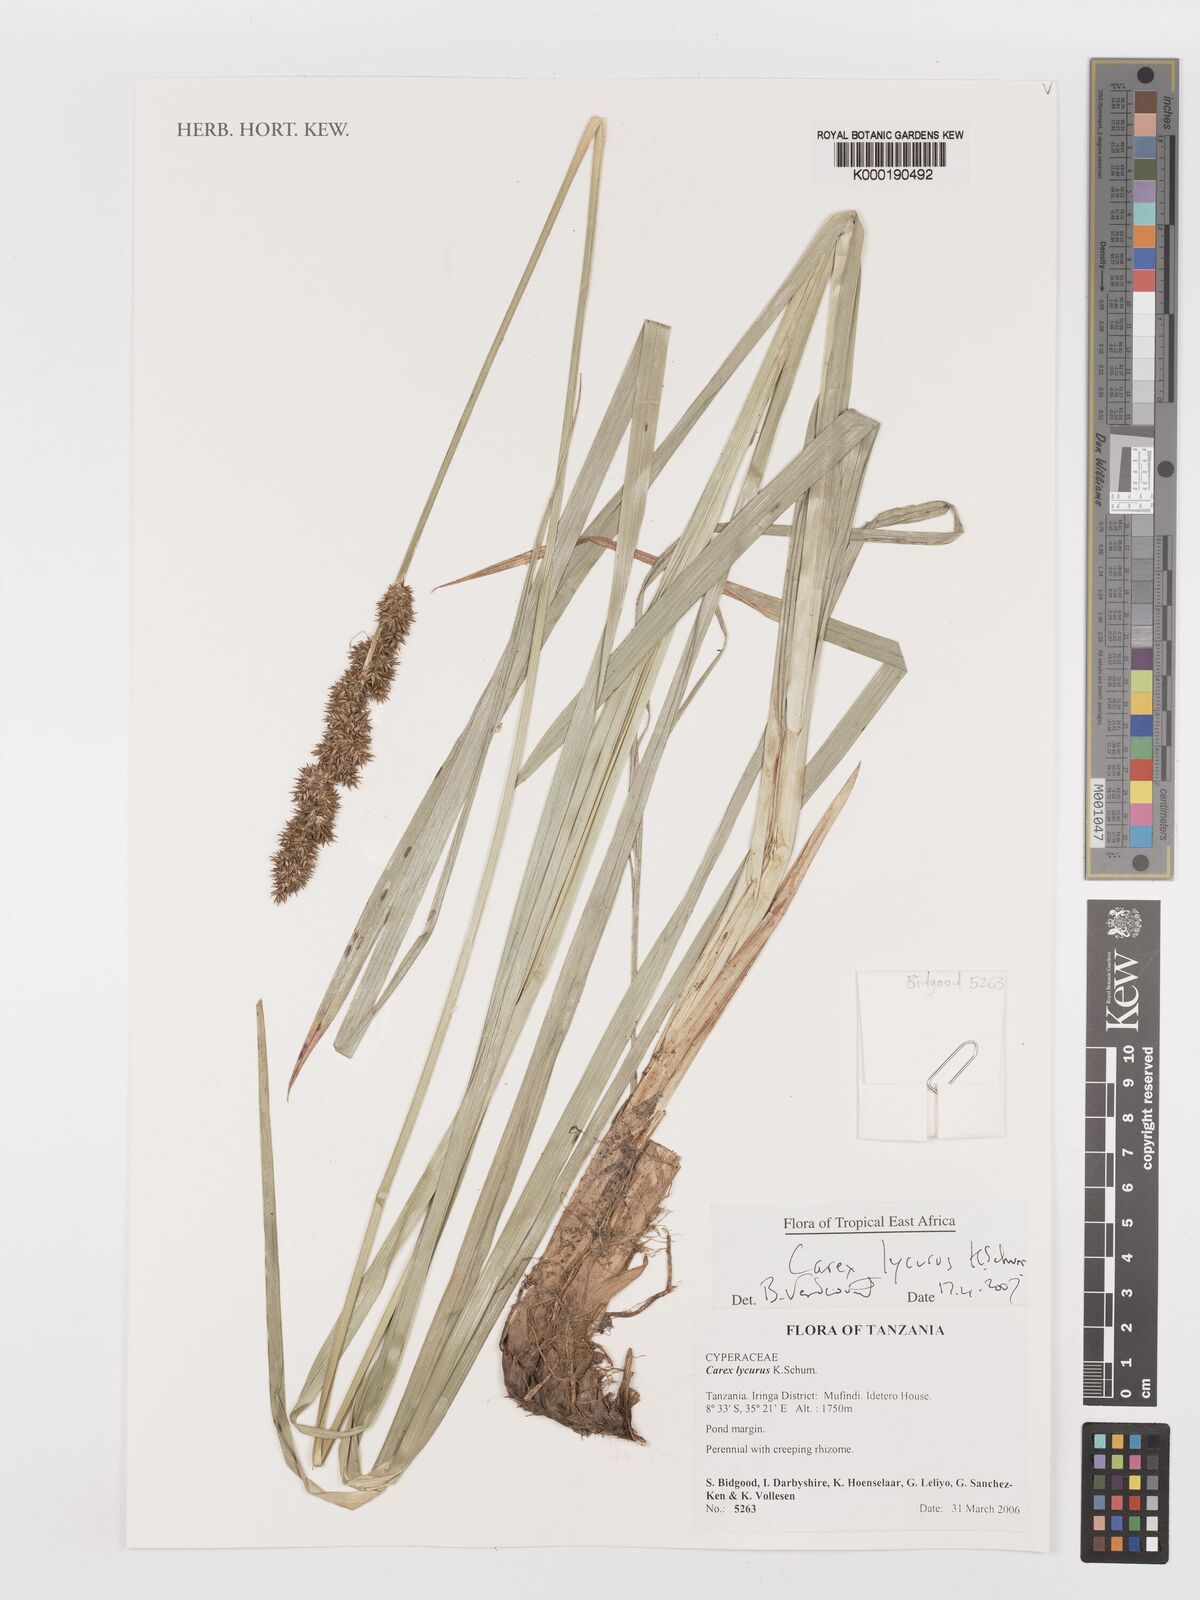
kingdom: Plantae
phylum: Tracheophyta
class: Liliopsida
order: Poales
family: Cyperaceae
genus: Carex
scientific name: Carex lycurus
